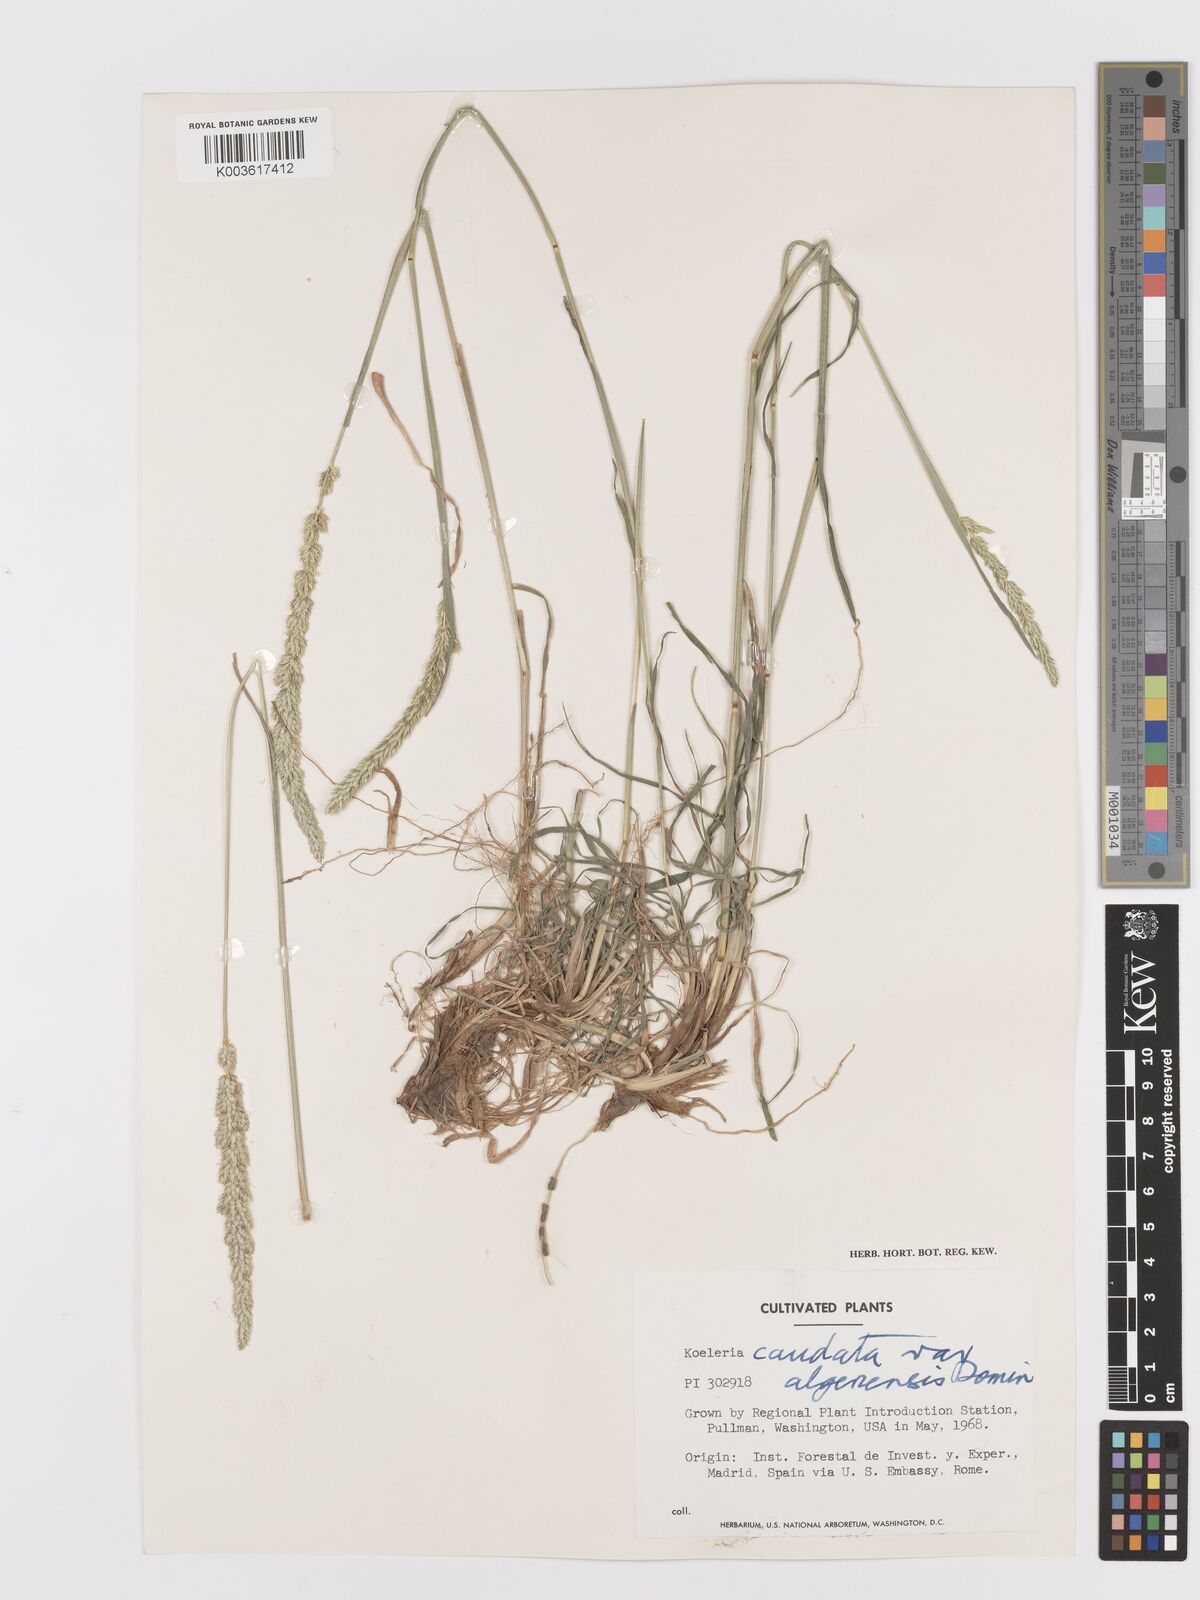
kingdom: Plantae
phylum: Tracheophyta
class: Liliopsida
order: Poales
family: Poaceae
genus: Koeleria
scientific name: Koeleria crassipes
